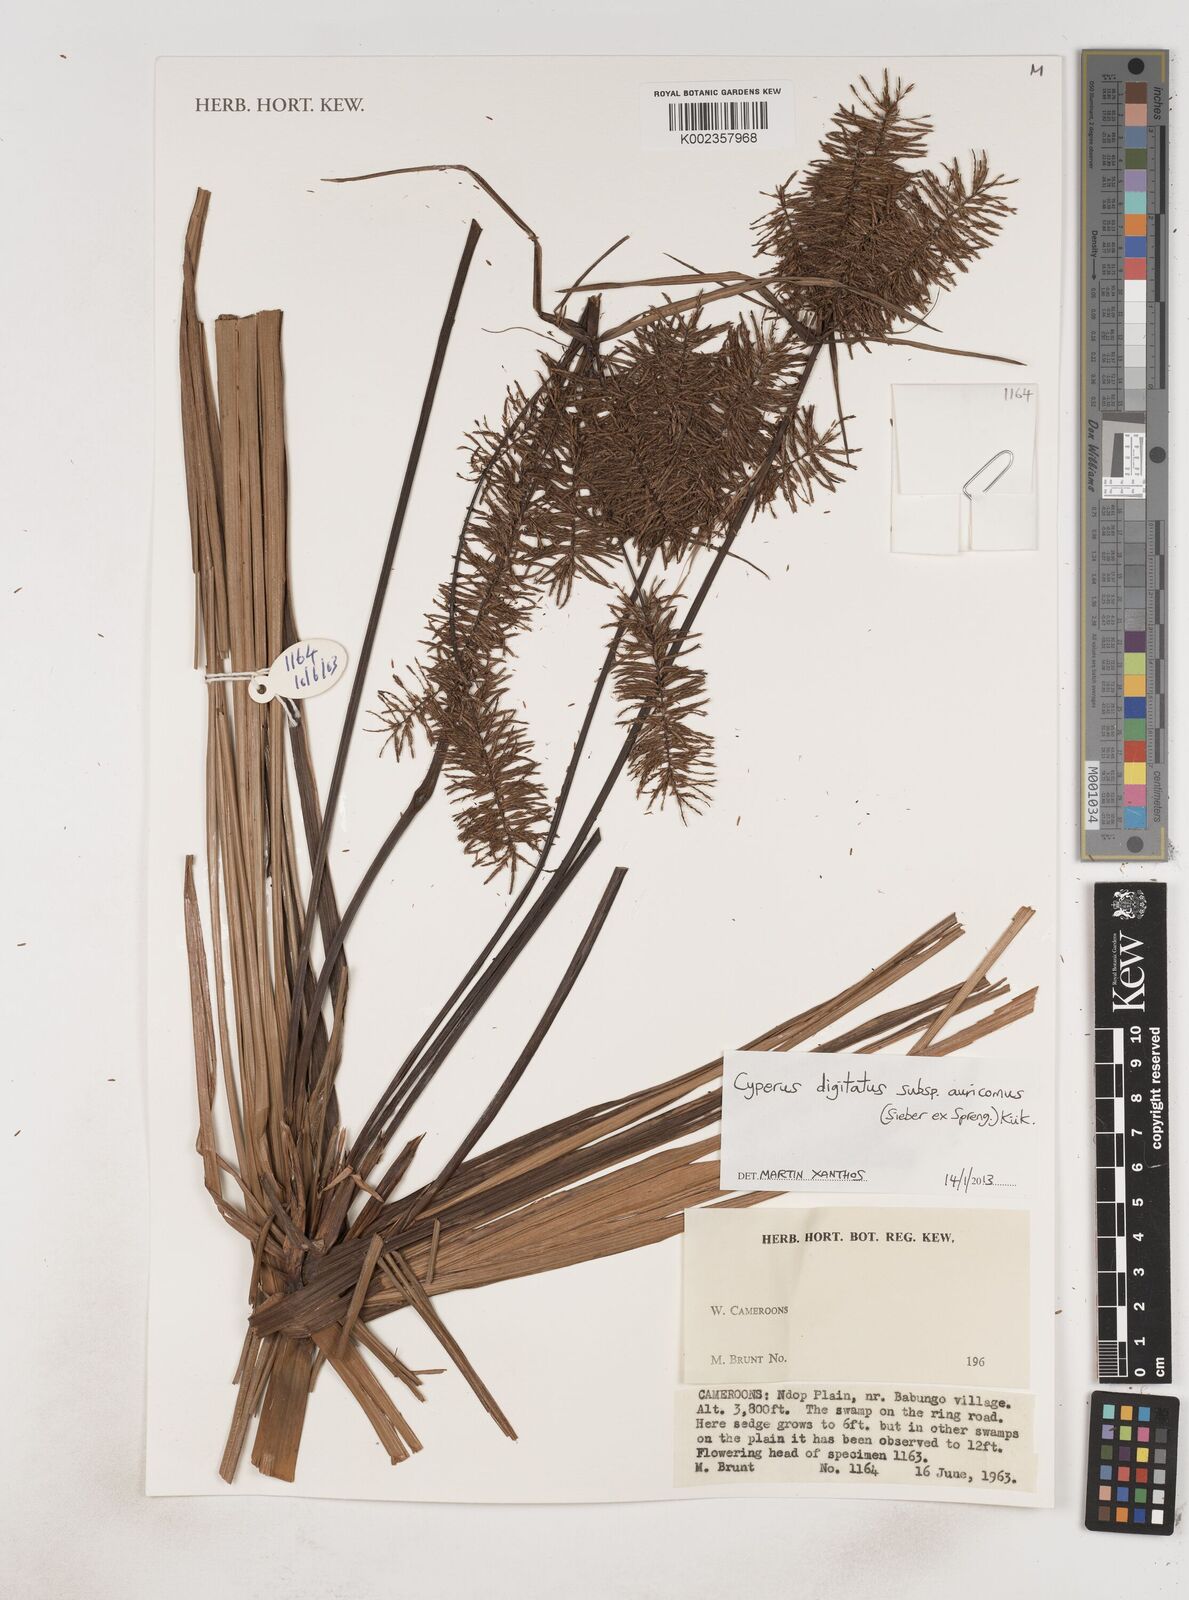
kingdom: Plantae
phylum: Tracheophyta
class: Liliopsida
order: Poales
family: Cyperaceae
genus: Cyperus
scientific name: Cyperus digitatus
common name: Finger flatsedge
